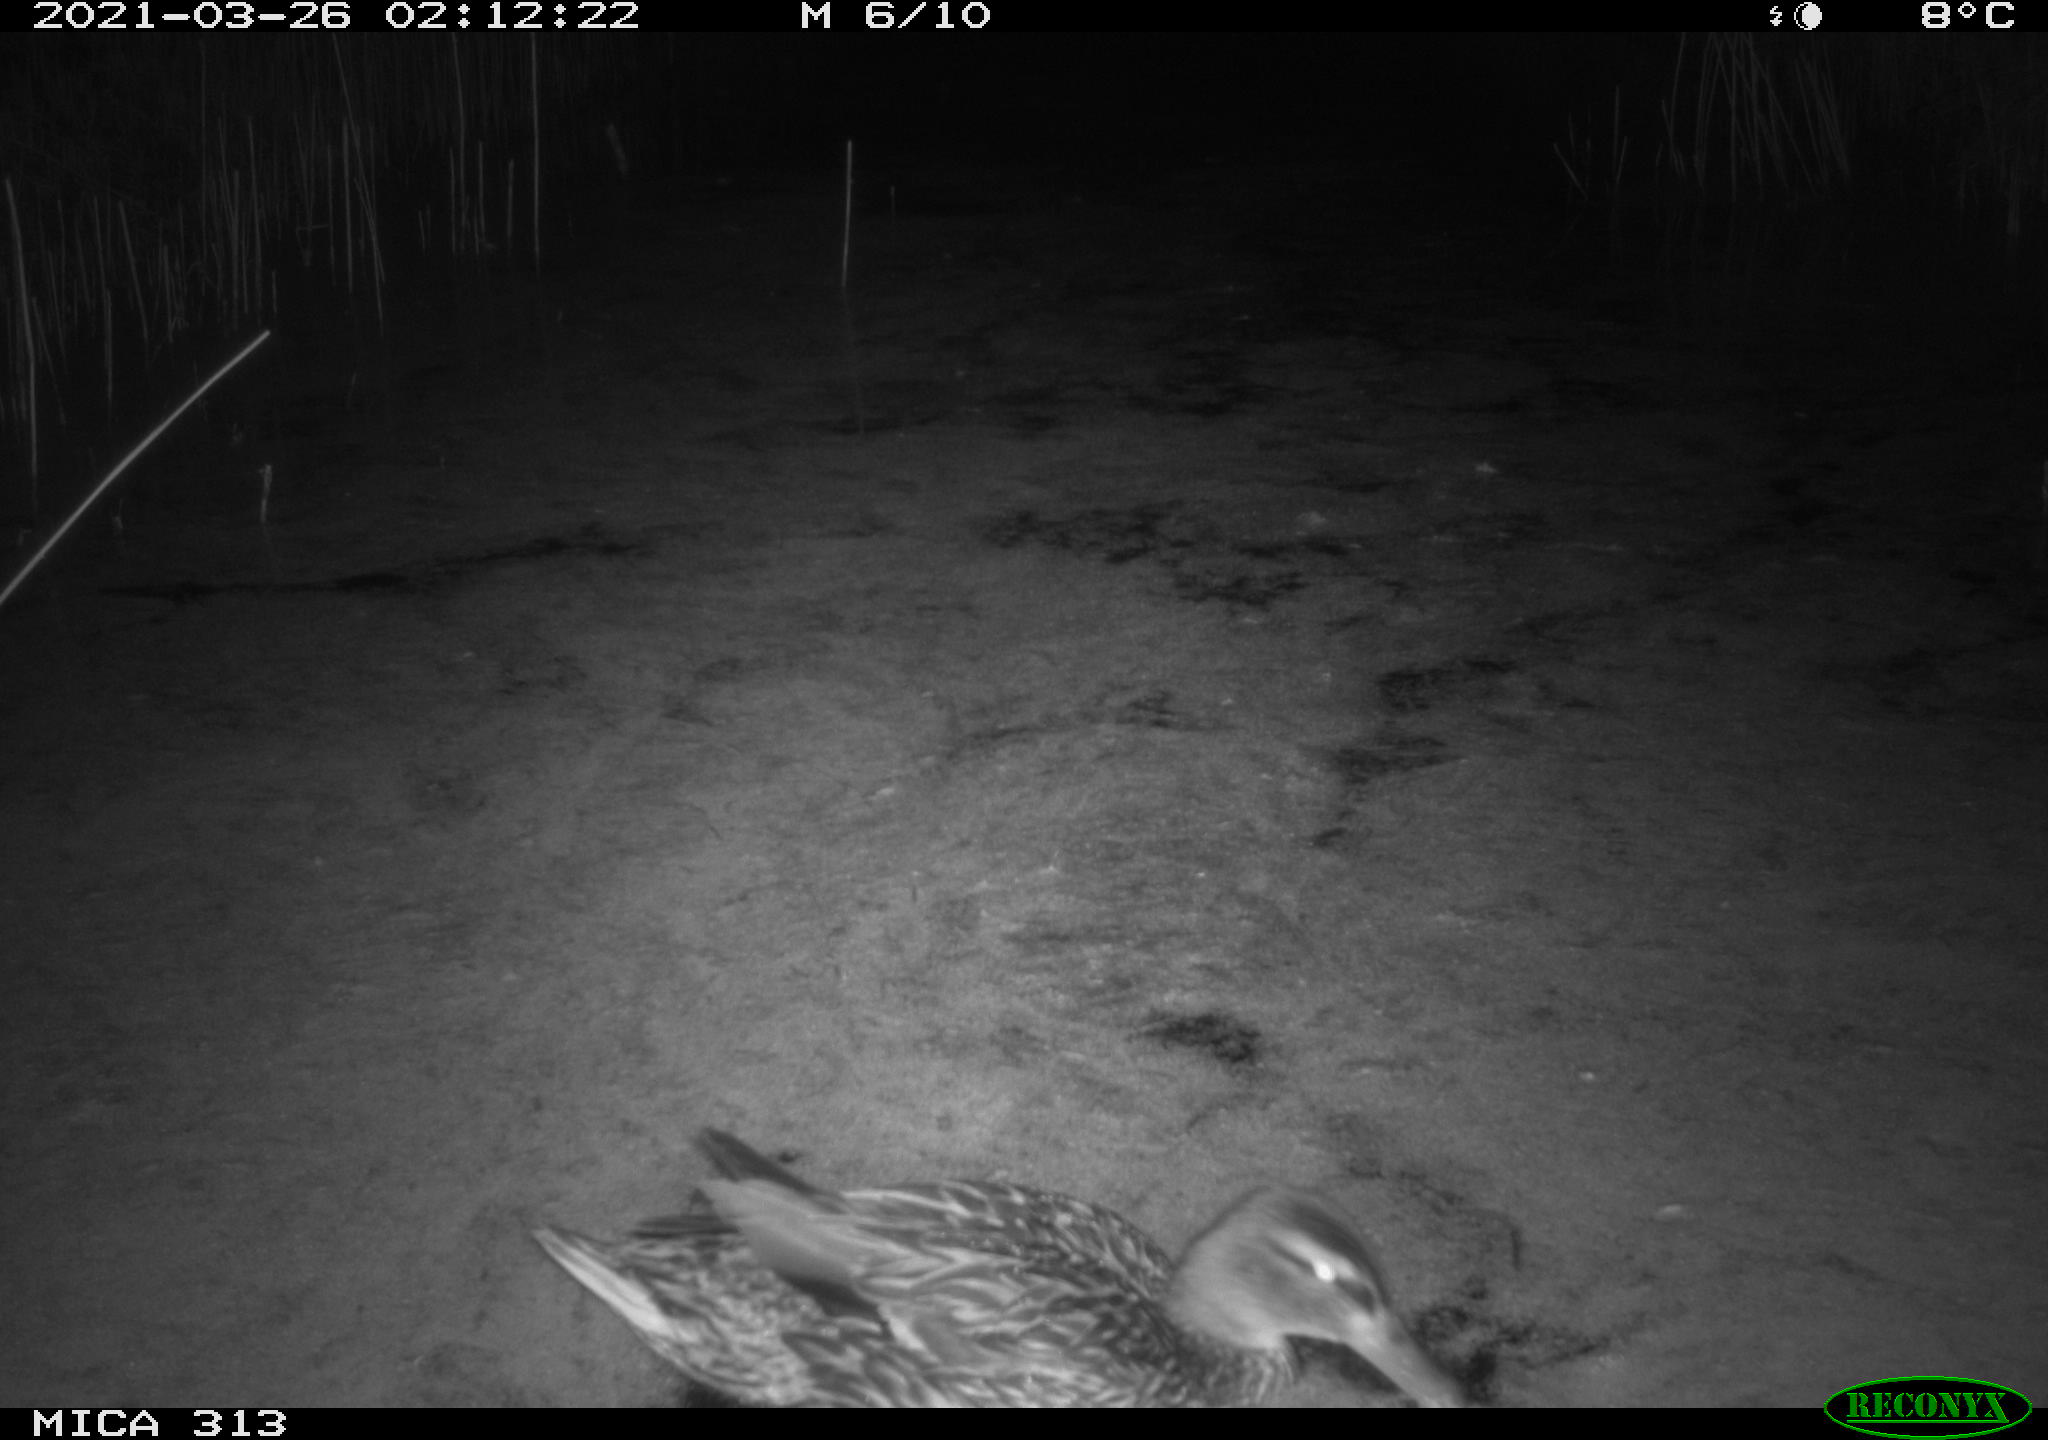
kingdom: Animalia
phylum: Chordata
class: Aves
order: Anseriformes
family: Anatidae
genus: Anas
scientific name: Anas platyrhynchos
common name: Mallard
